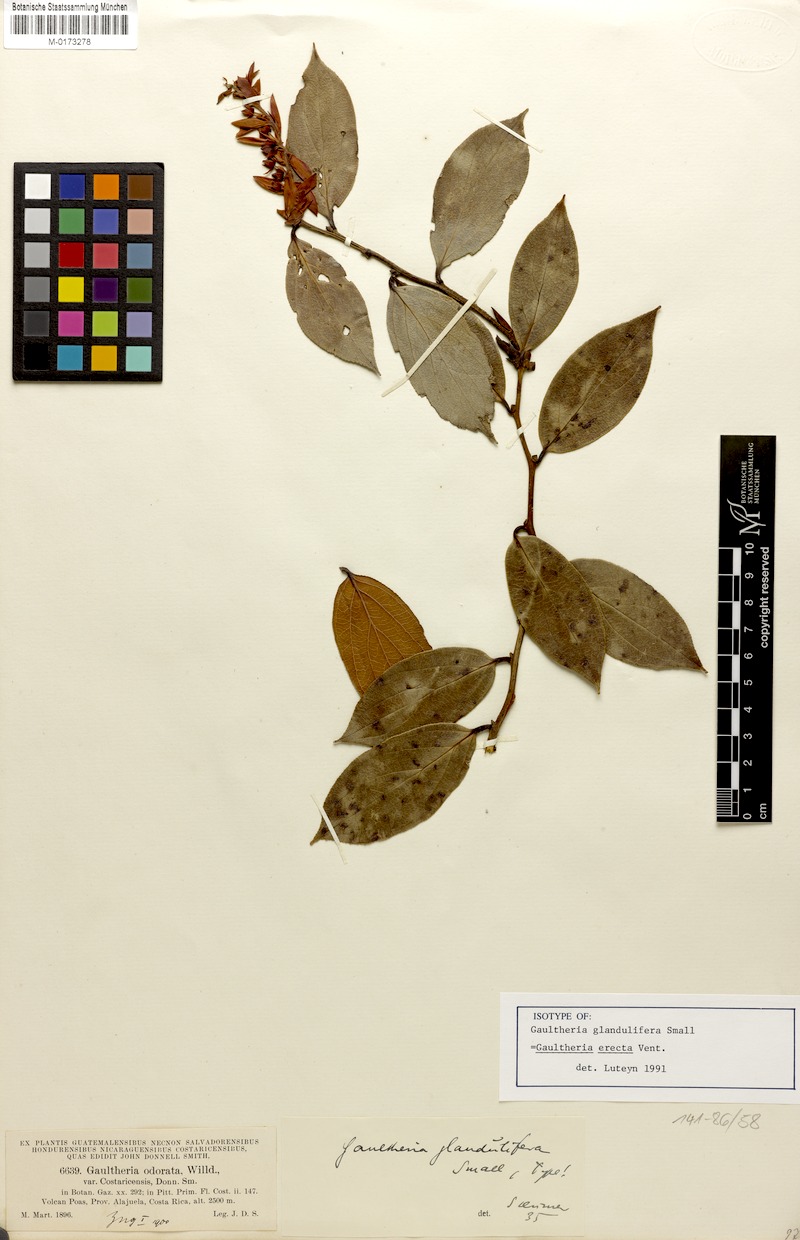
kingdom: Plantae
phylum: Tracheophyta
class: Magnoliopsida
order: Ericales
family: Ericaceae
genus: Gaultheria
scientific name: Gaultheria erecta
